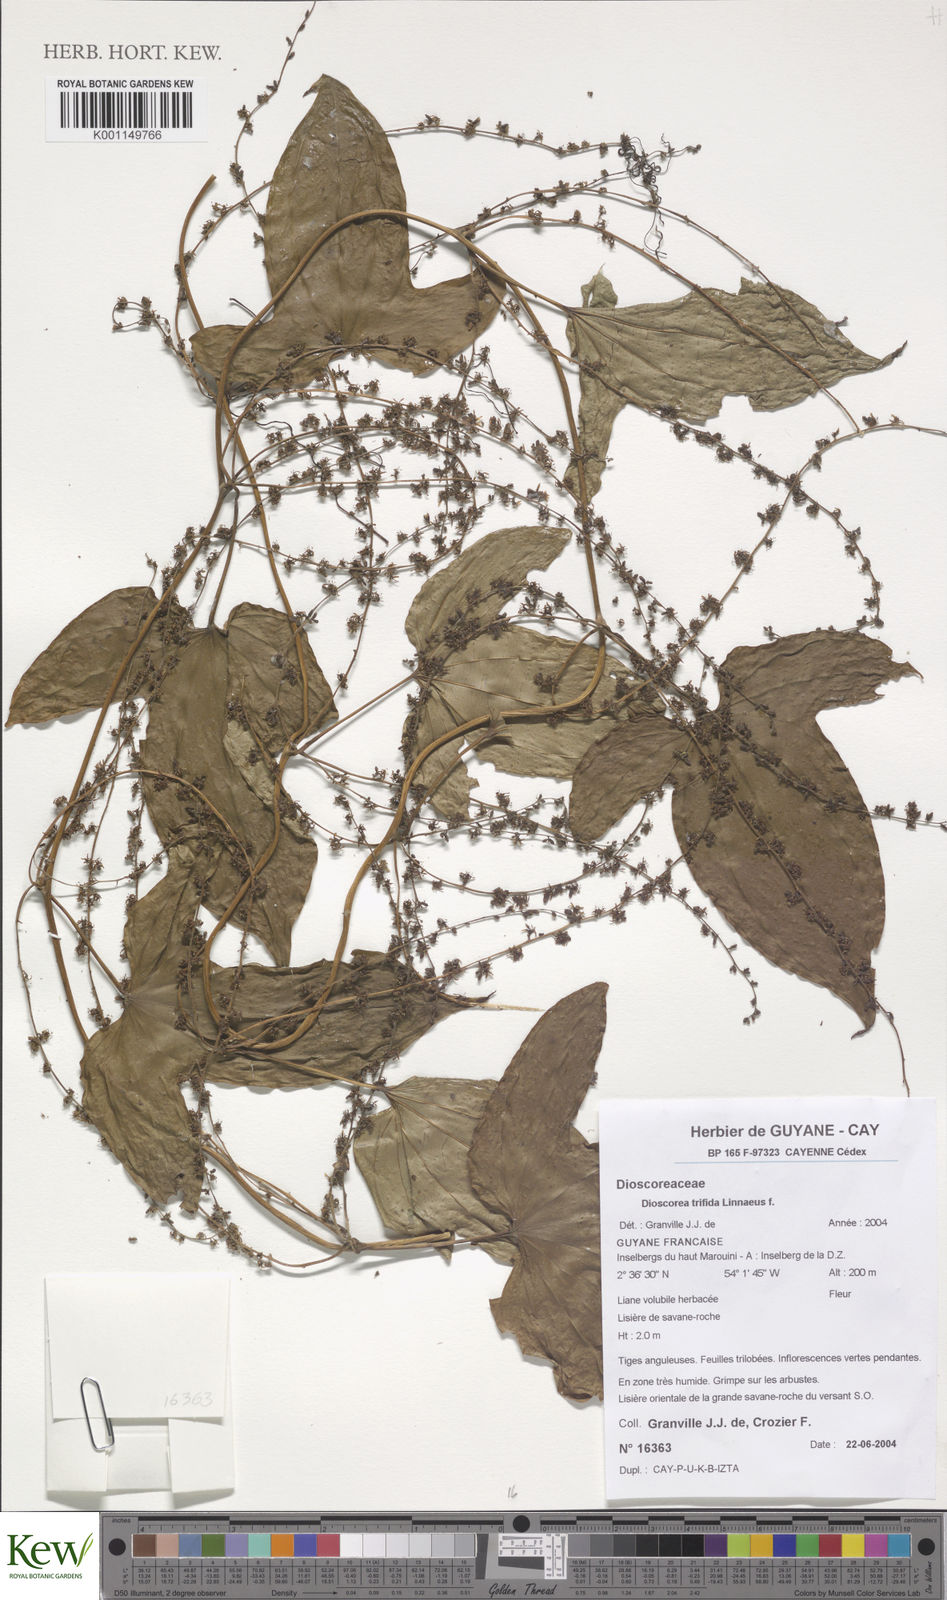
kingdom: Plantae
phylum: Tracheophyta
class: Liliopsida
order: Dioscoreales
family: Dioscoreaceae
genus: Dioscorea
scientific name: Dioscorea trifida
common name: Cush-cush
